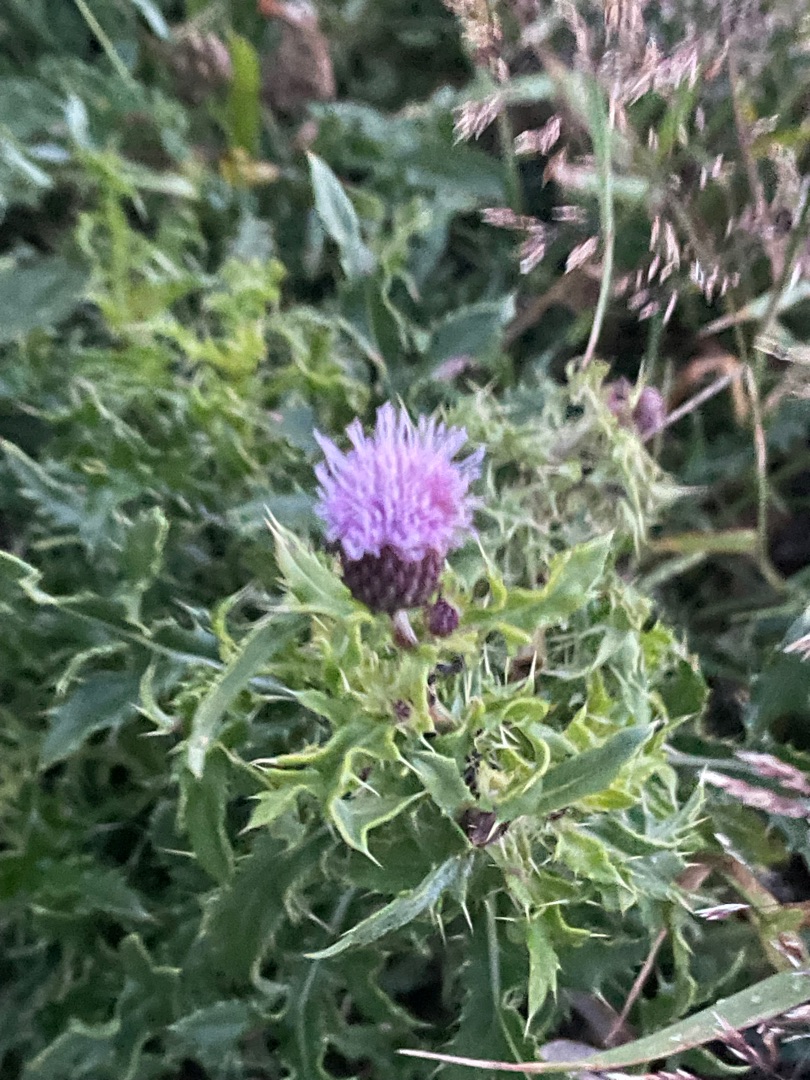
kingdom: Plantae
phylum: Tracheophyta
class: Magnoliopsida
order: Asterales
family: Asteraceae
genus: Cirsium
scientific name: Cirsium arvense
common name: Ager-tidsel
